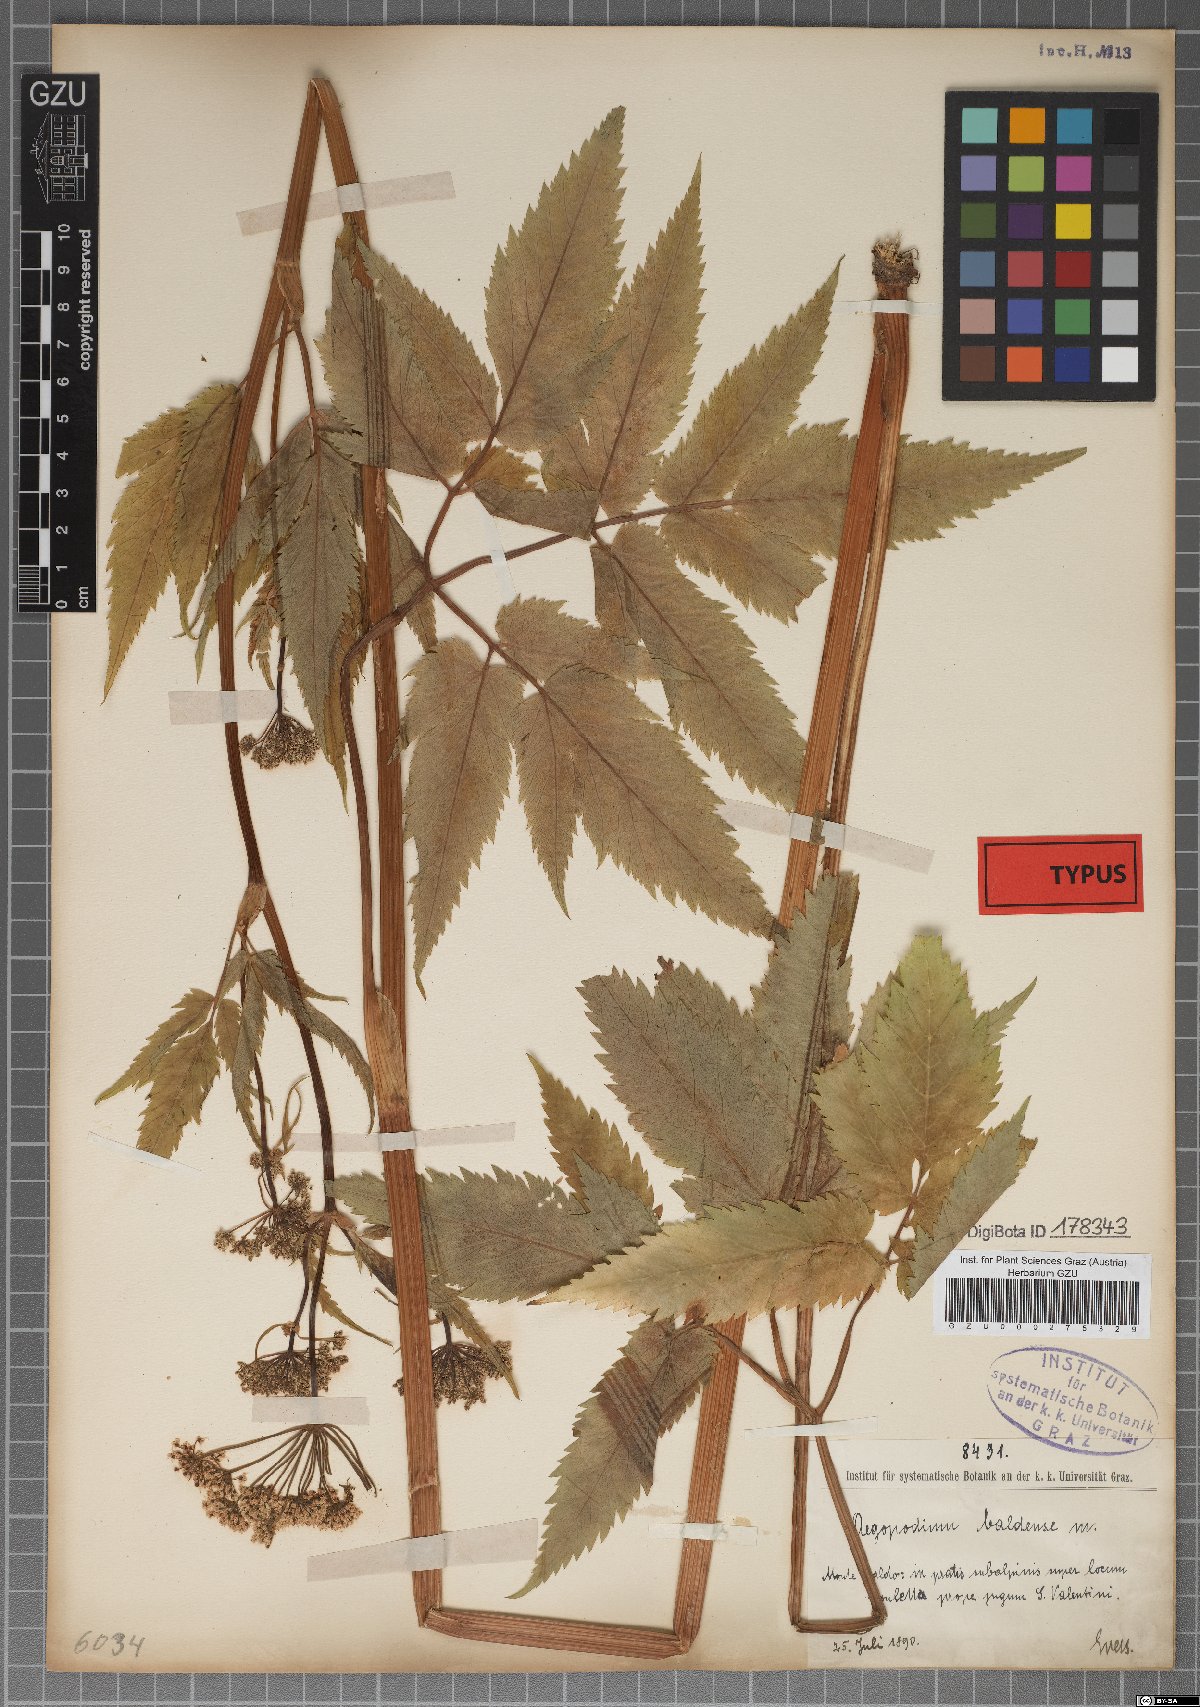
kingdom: Plantae
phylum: Tracheophyta
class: Magnoliopsida
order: Apiales
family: Apiaceae
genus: Aegopodium
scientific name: Aegopodium podagraria
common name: Ground-elder
